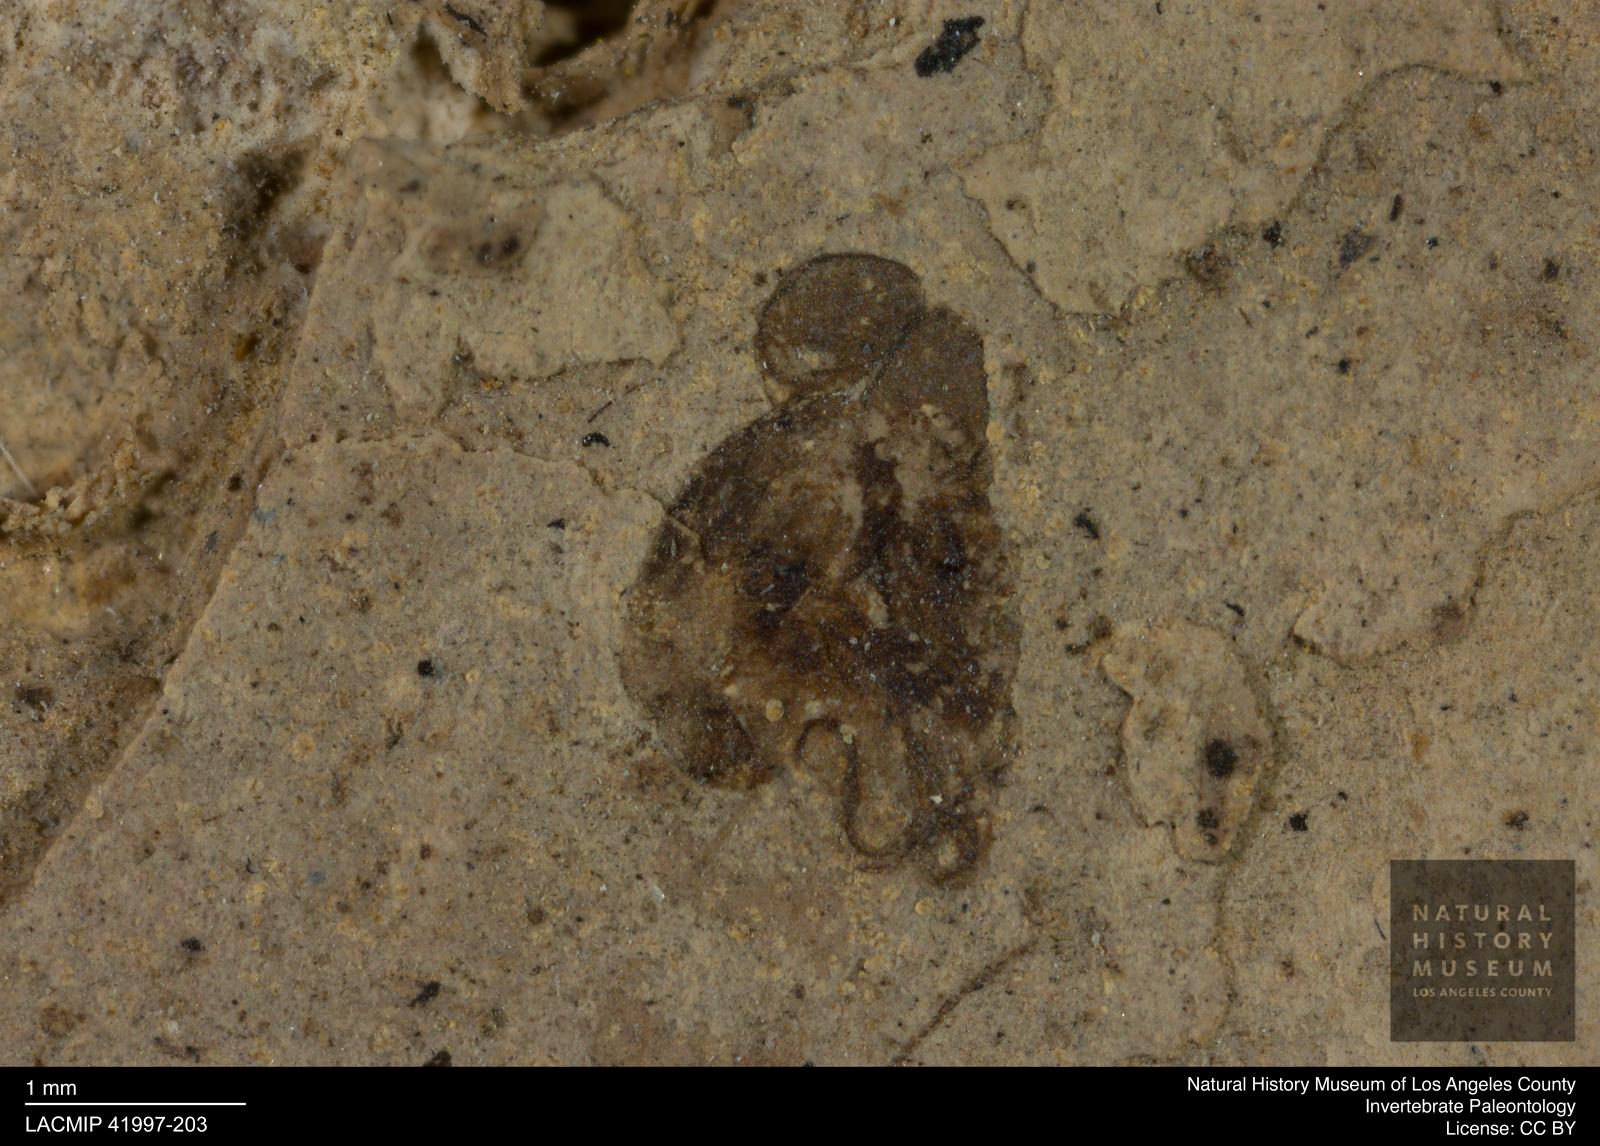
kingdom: Animalia
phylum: Arthropoda
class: Insecta
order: Diptera
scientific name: Diptera
